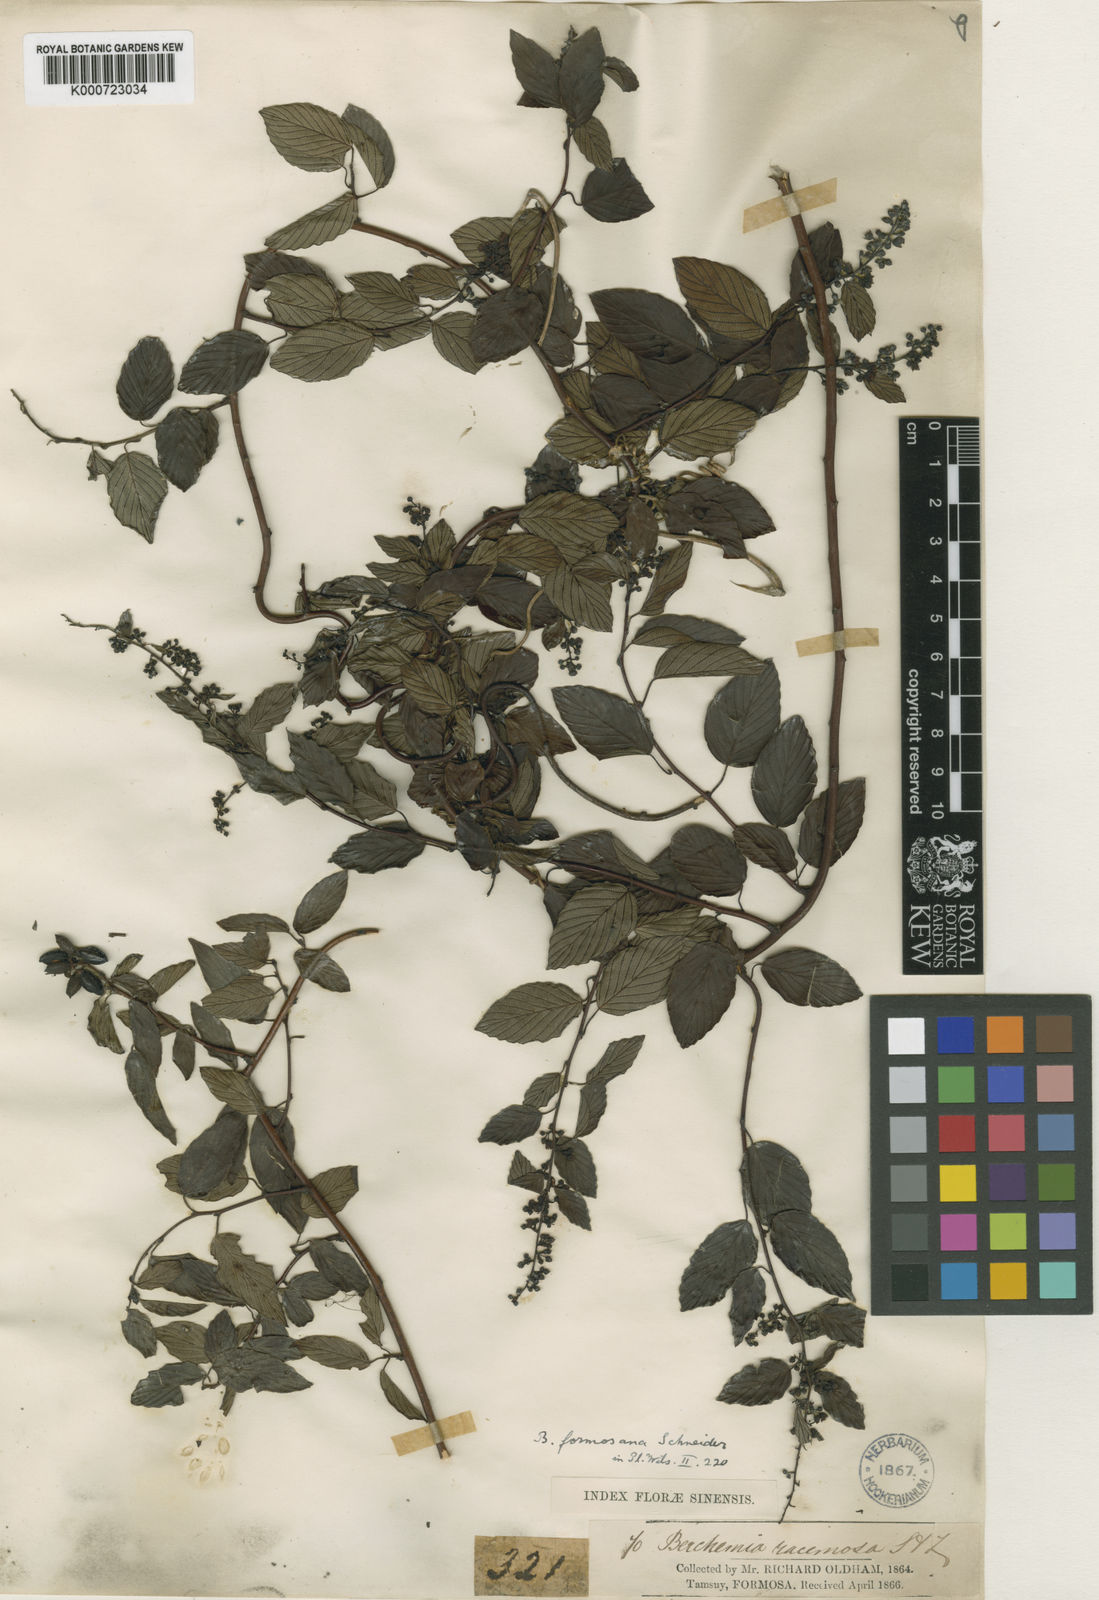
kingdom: Plantae
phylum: Tracheophyta
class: Magnoliopsida
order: Rosales
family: Rhamnaceae
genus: Berchemia
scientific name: Berchemia formosana
